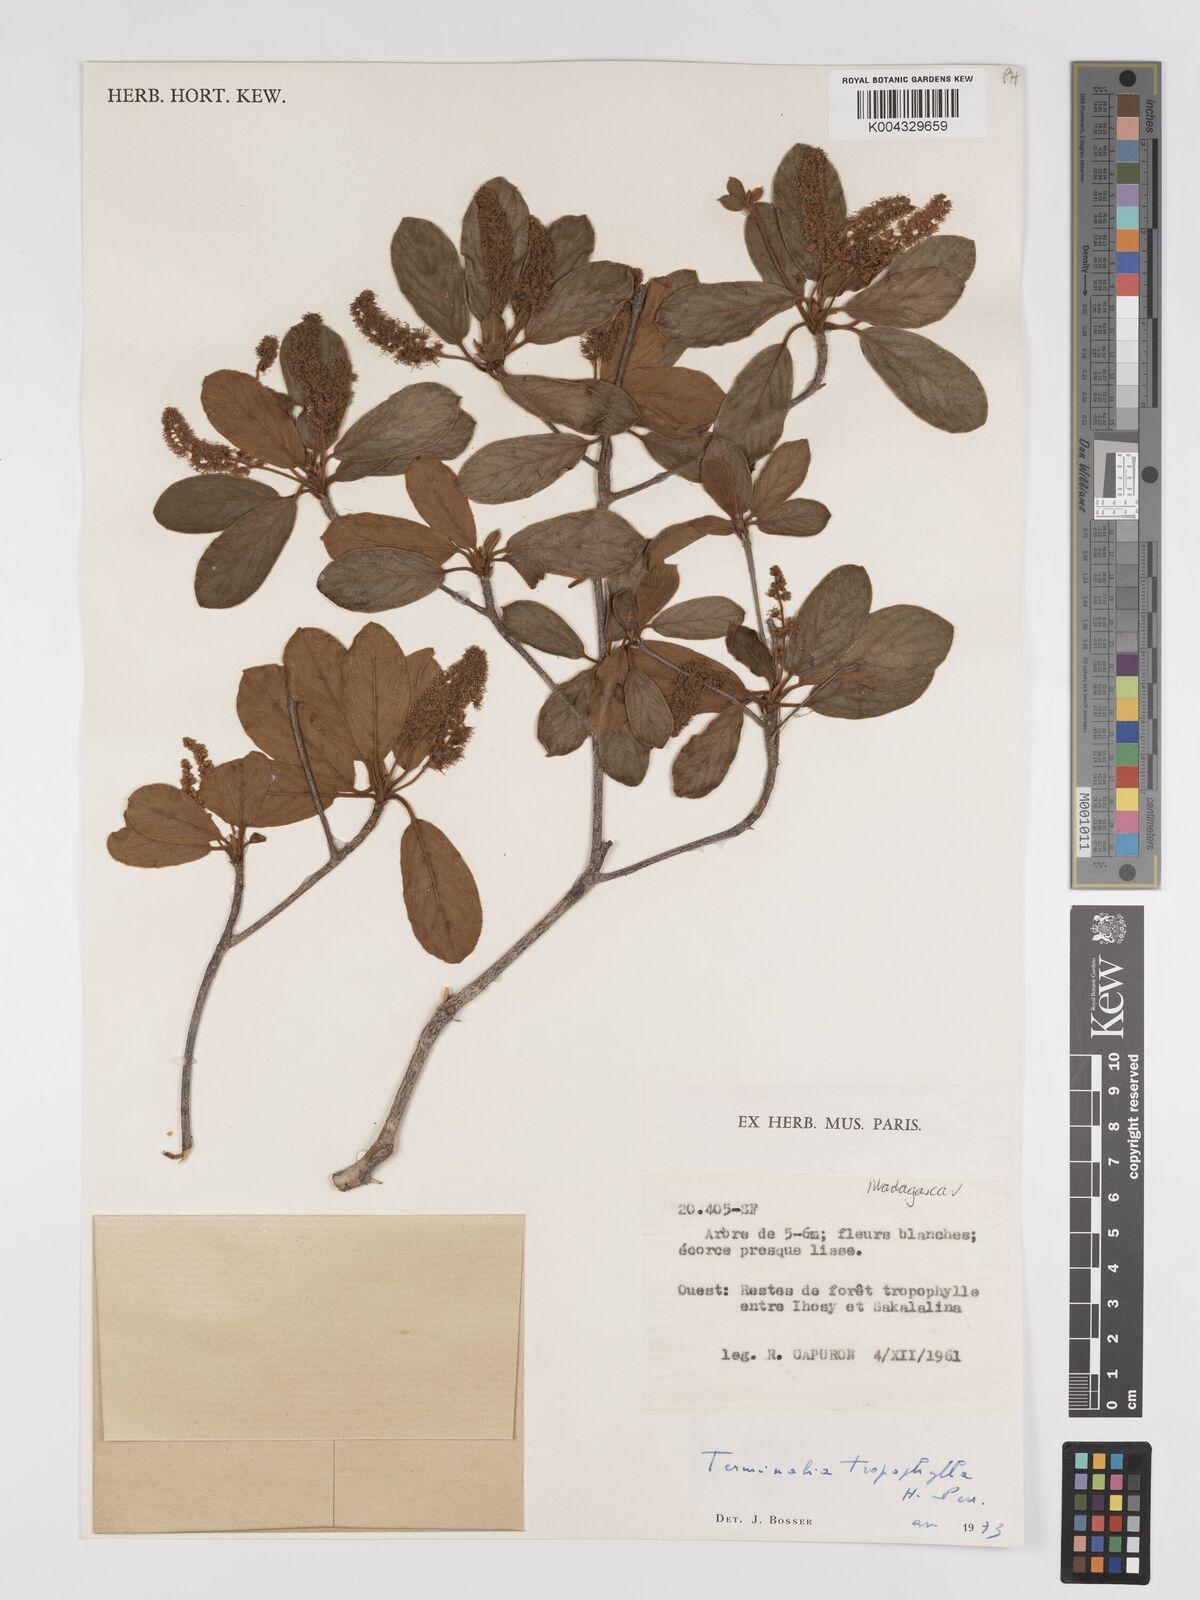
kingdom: Plantae
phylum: Tracheophyta
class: Magnoliopsida
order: Myrtales
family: Combretaceae
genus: Terminalia
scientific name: Terminalia tropophylla
